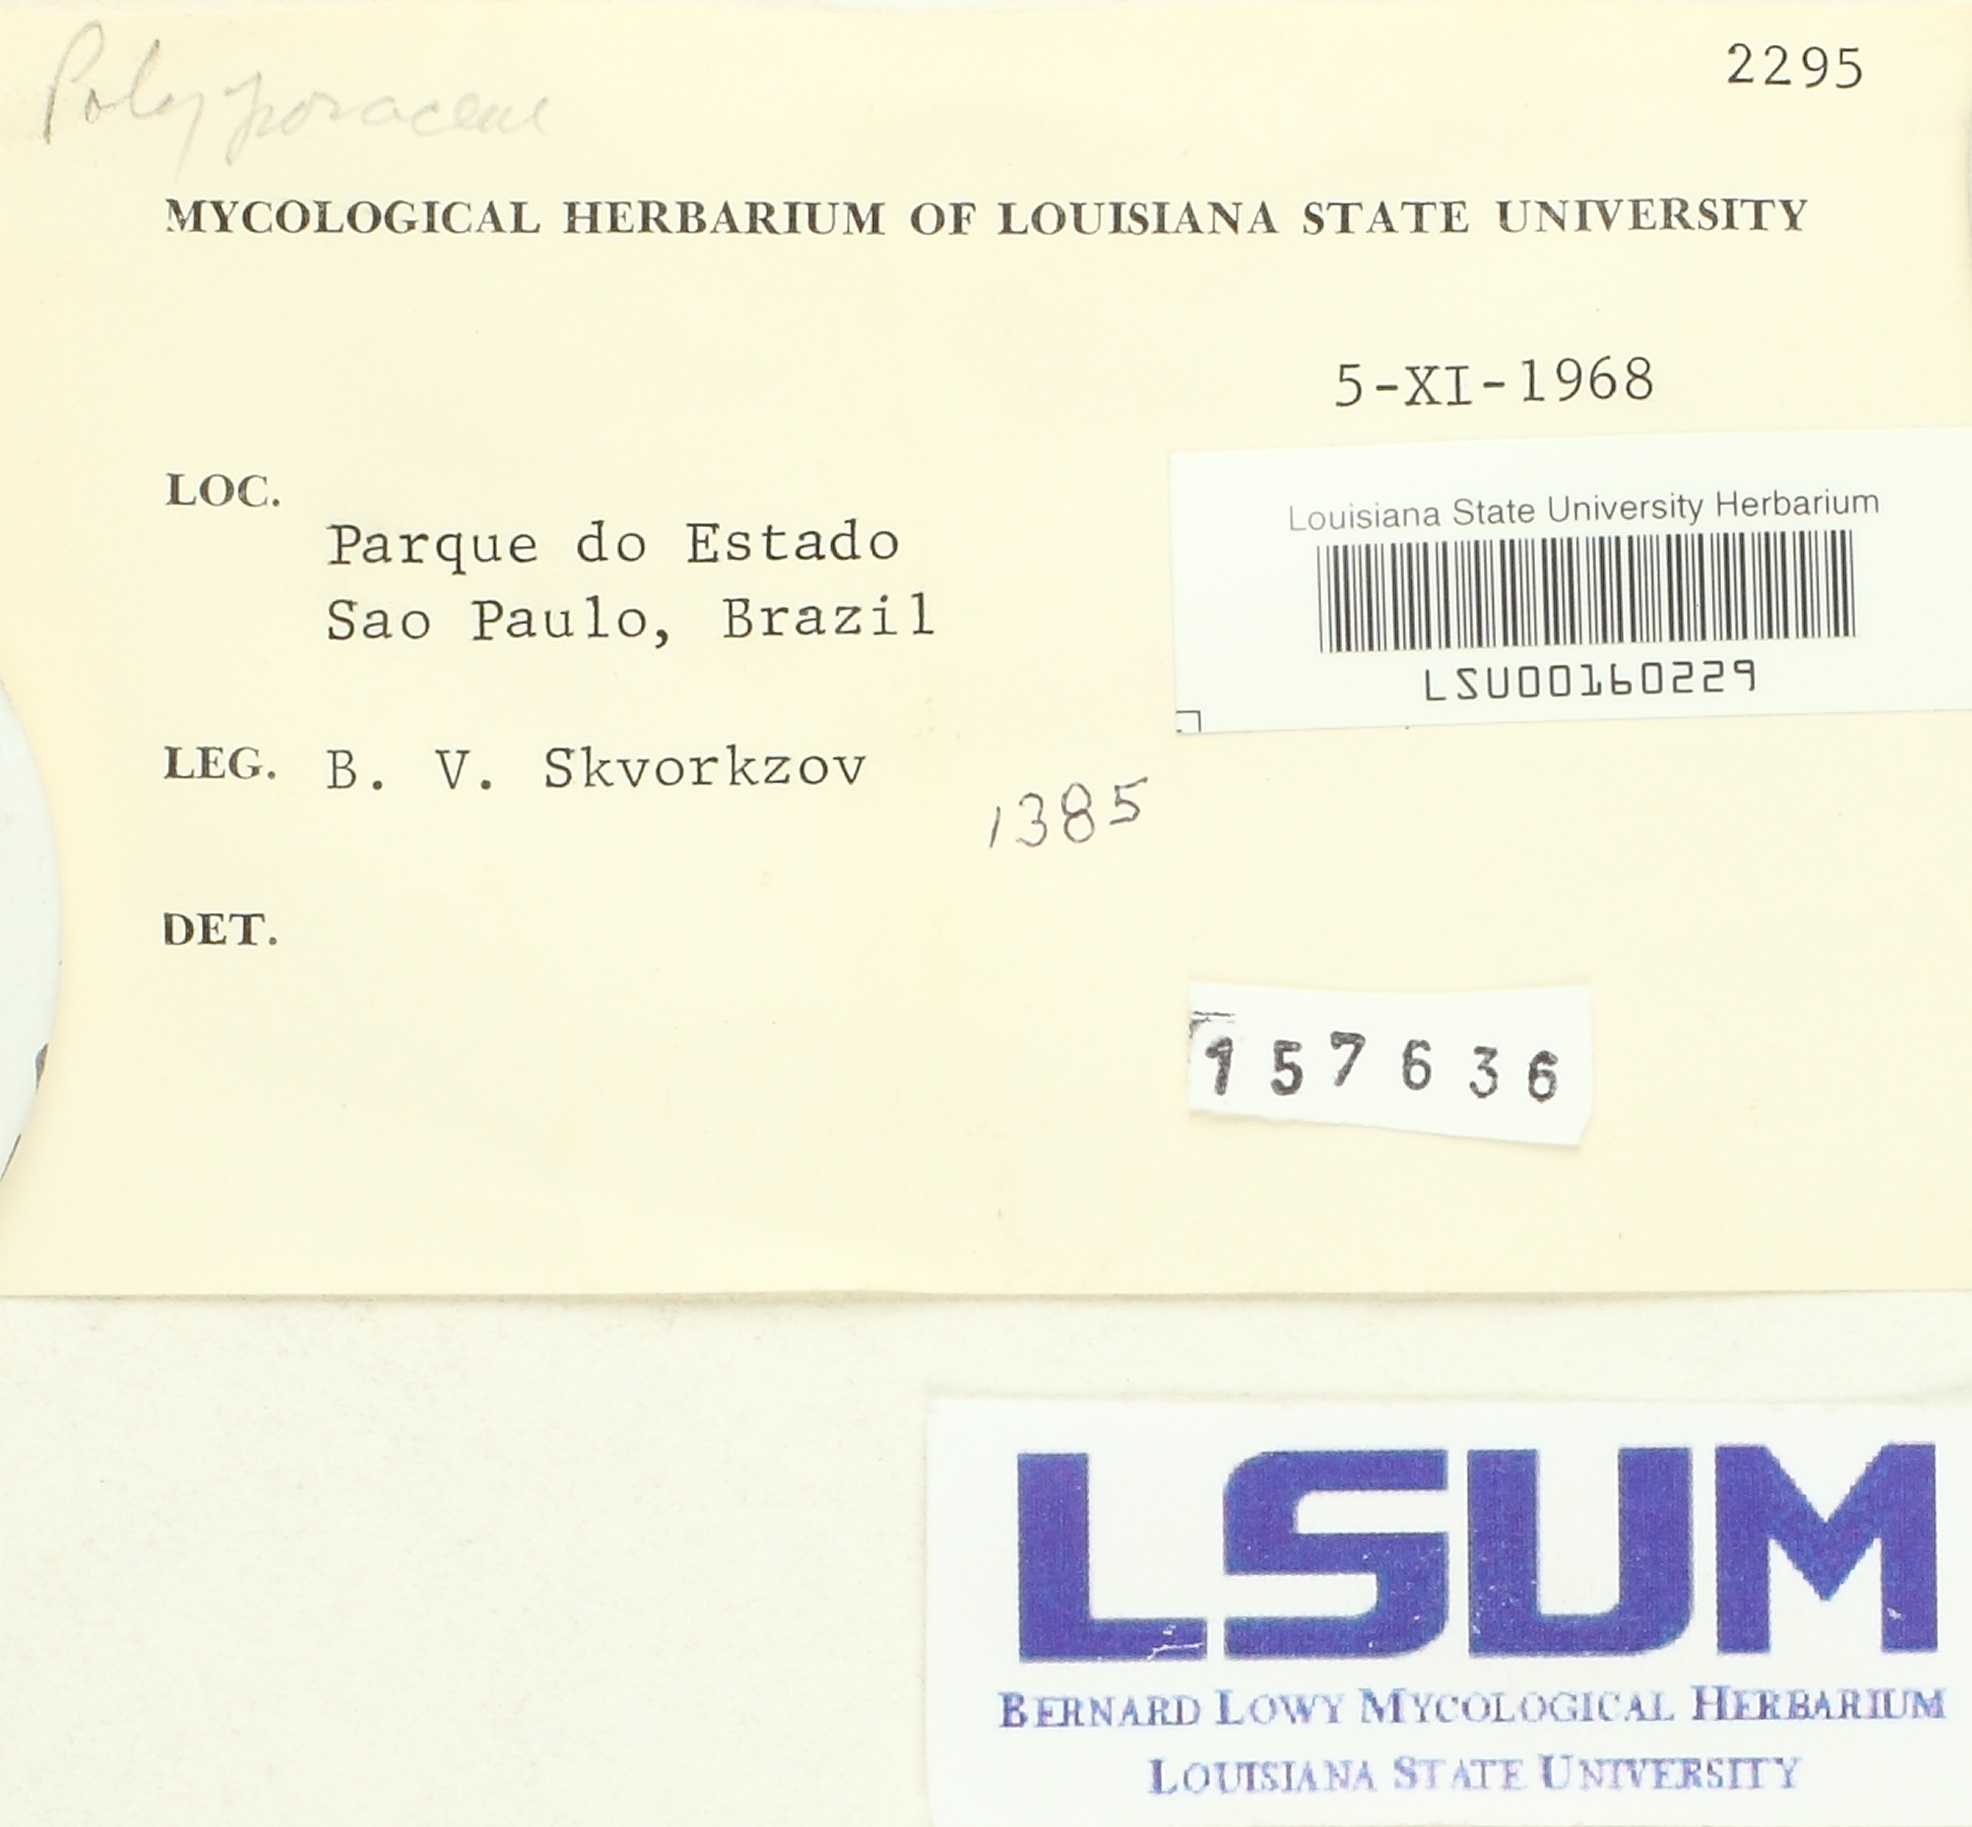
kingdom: Fungi
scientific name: Fungi
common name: Fungi
